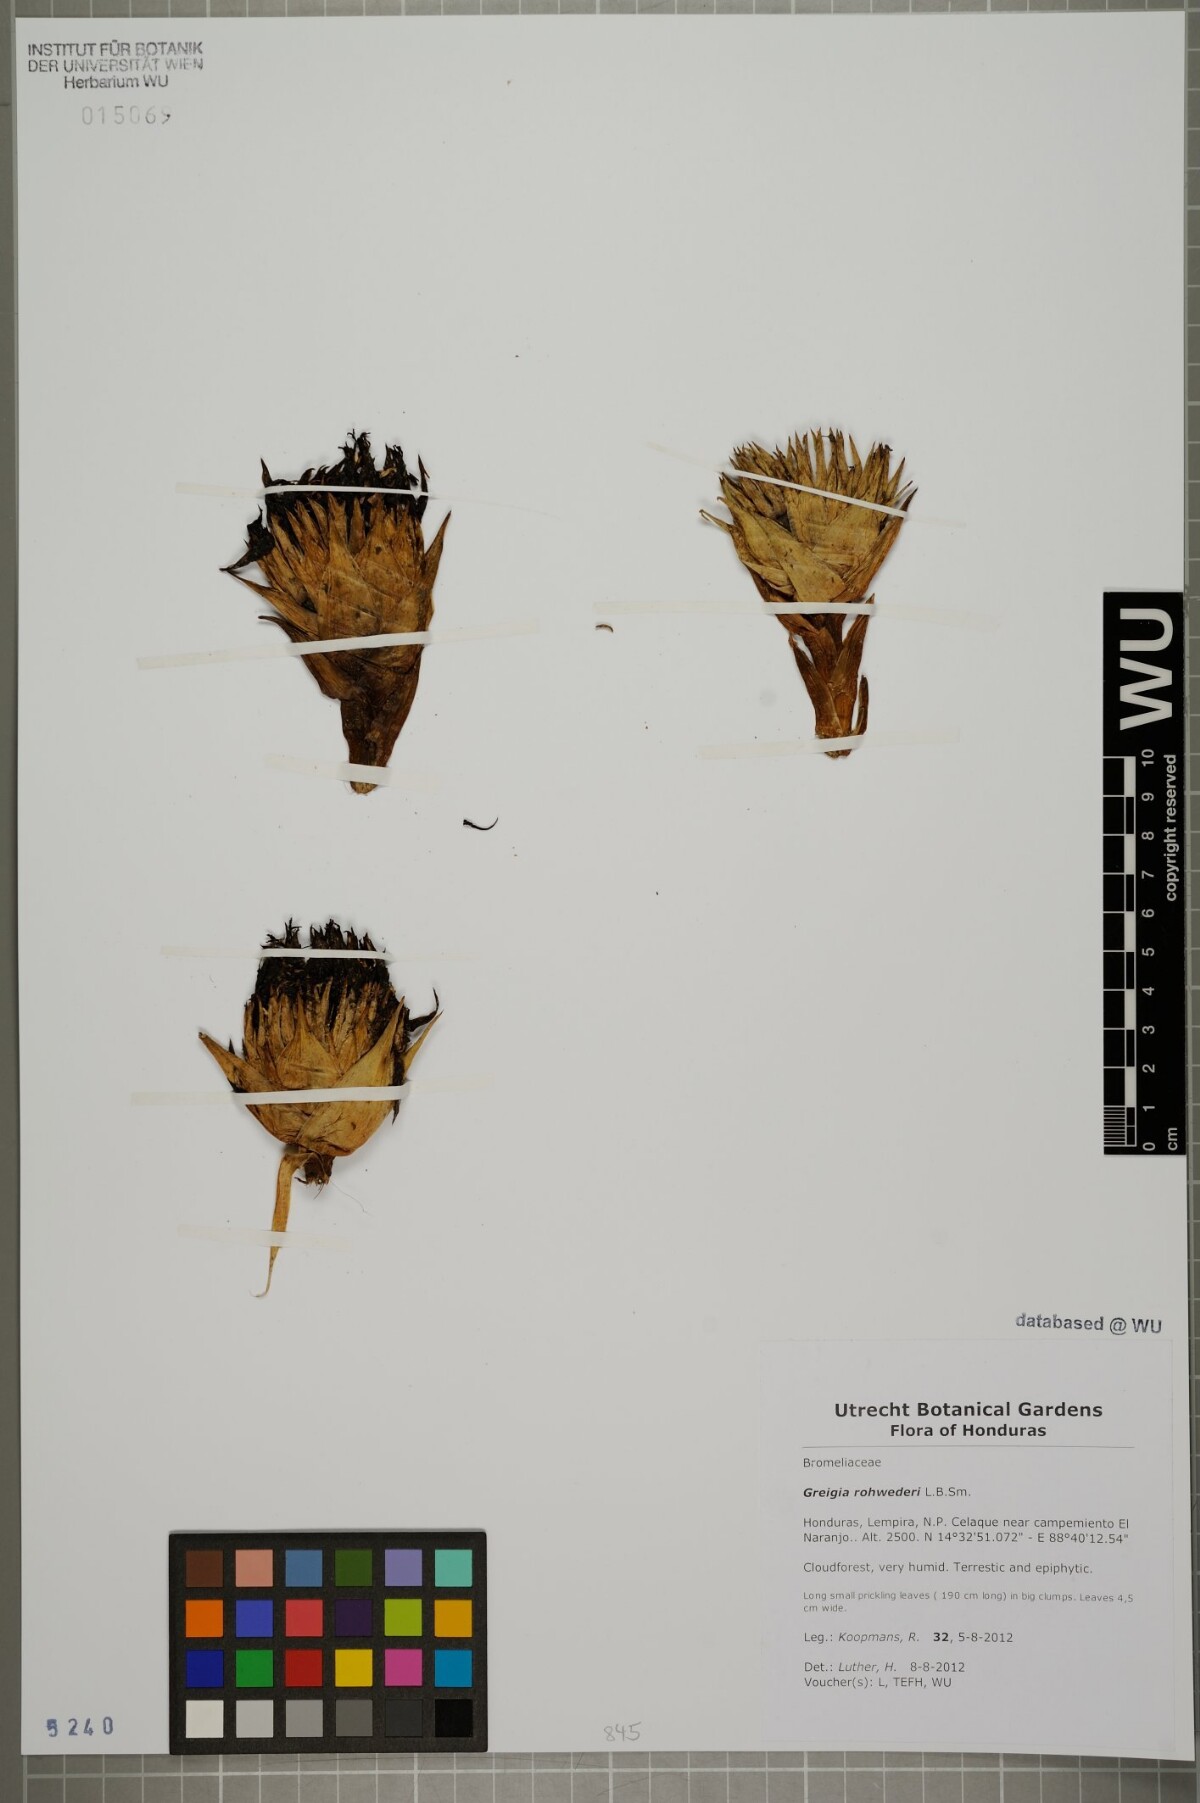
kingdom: Plantae
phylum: Tracheophyta
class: Liliopsida
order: Poales
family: Bromeliaceae
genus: Greigia
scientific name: Greigia rohwederi
